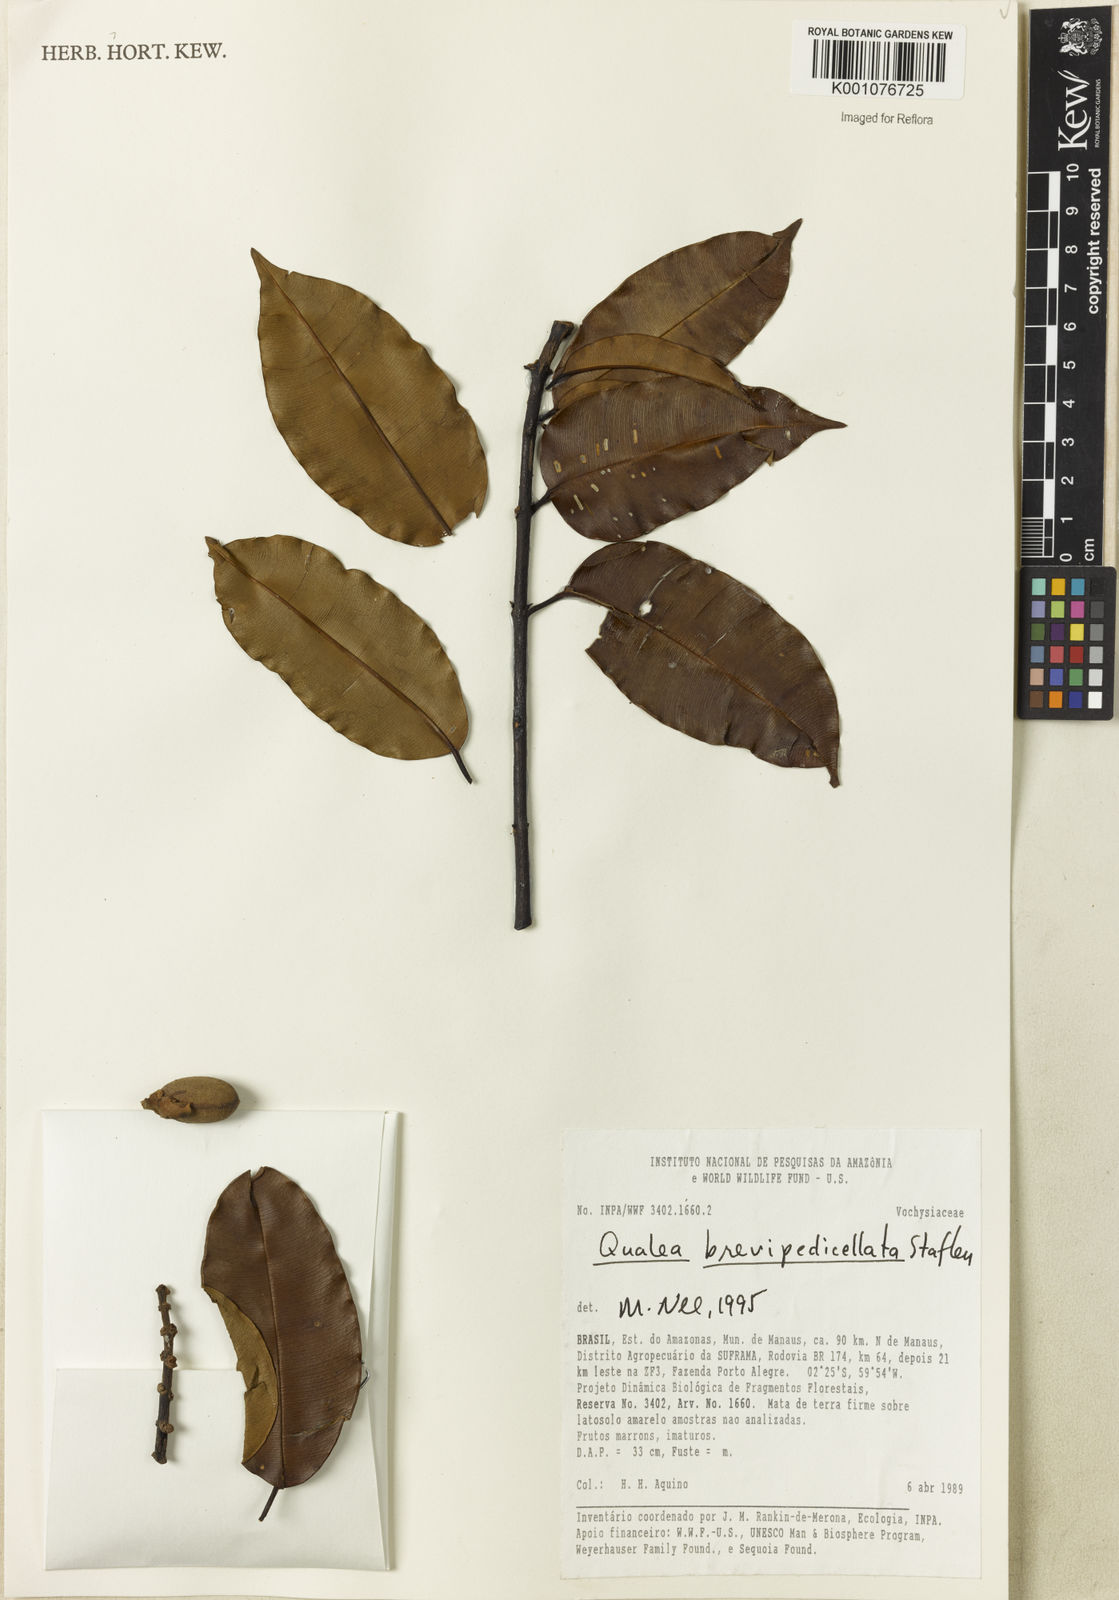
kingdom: Plantae
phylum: Tracheophyta
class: Magnoliopsida
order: Myrtales
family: Vochysiaceae
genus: Qualea
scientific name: Qualea brevipedicellata
